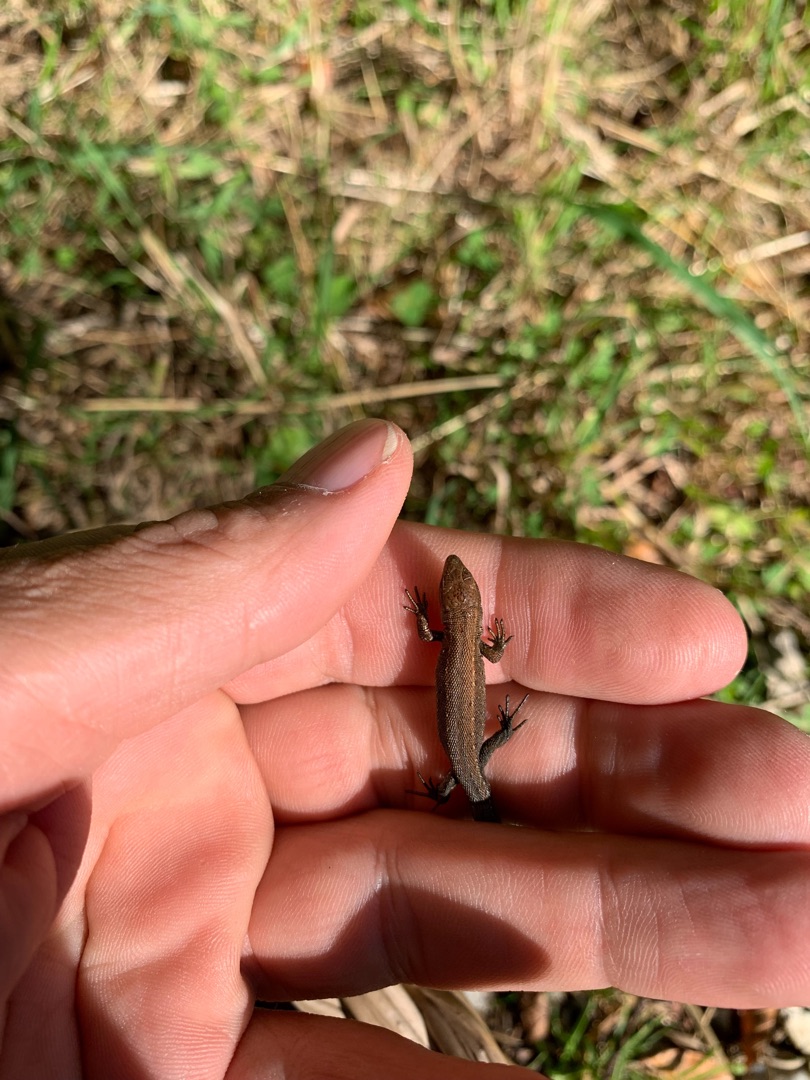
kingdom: Animalia
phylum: Chordata
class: Squamata
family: Lacertidae
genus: Zootoca
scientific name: Zootoca vivipara
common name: Skovfirben
